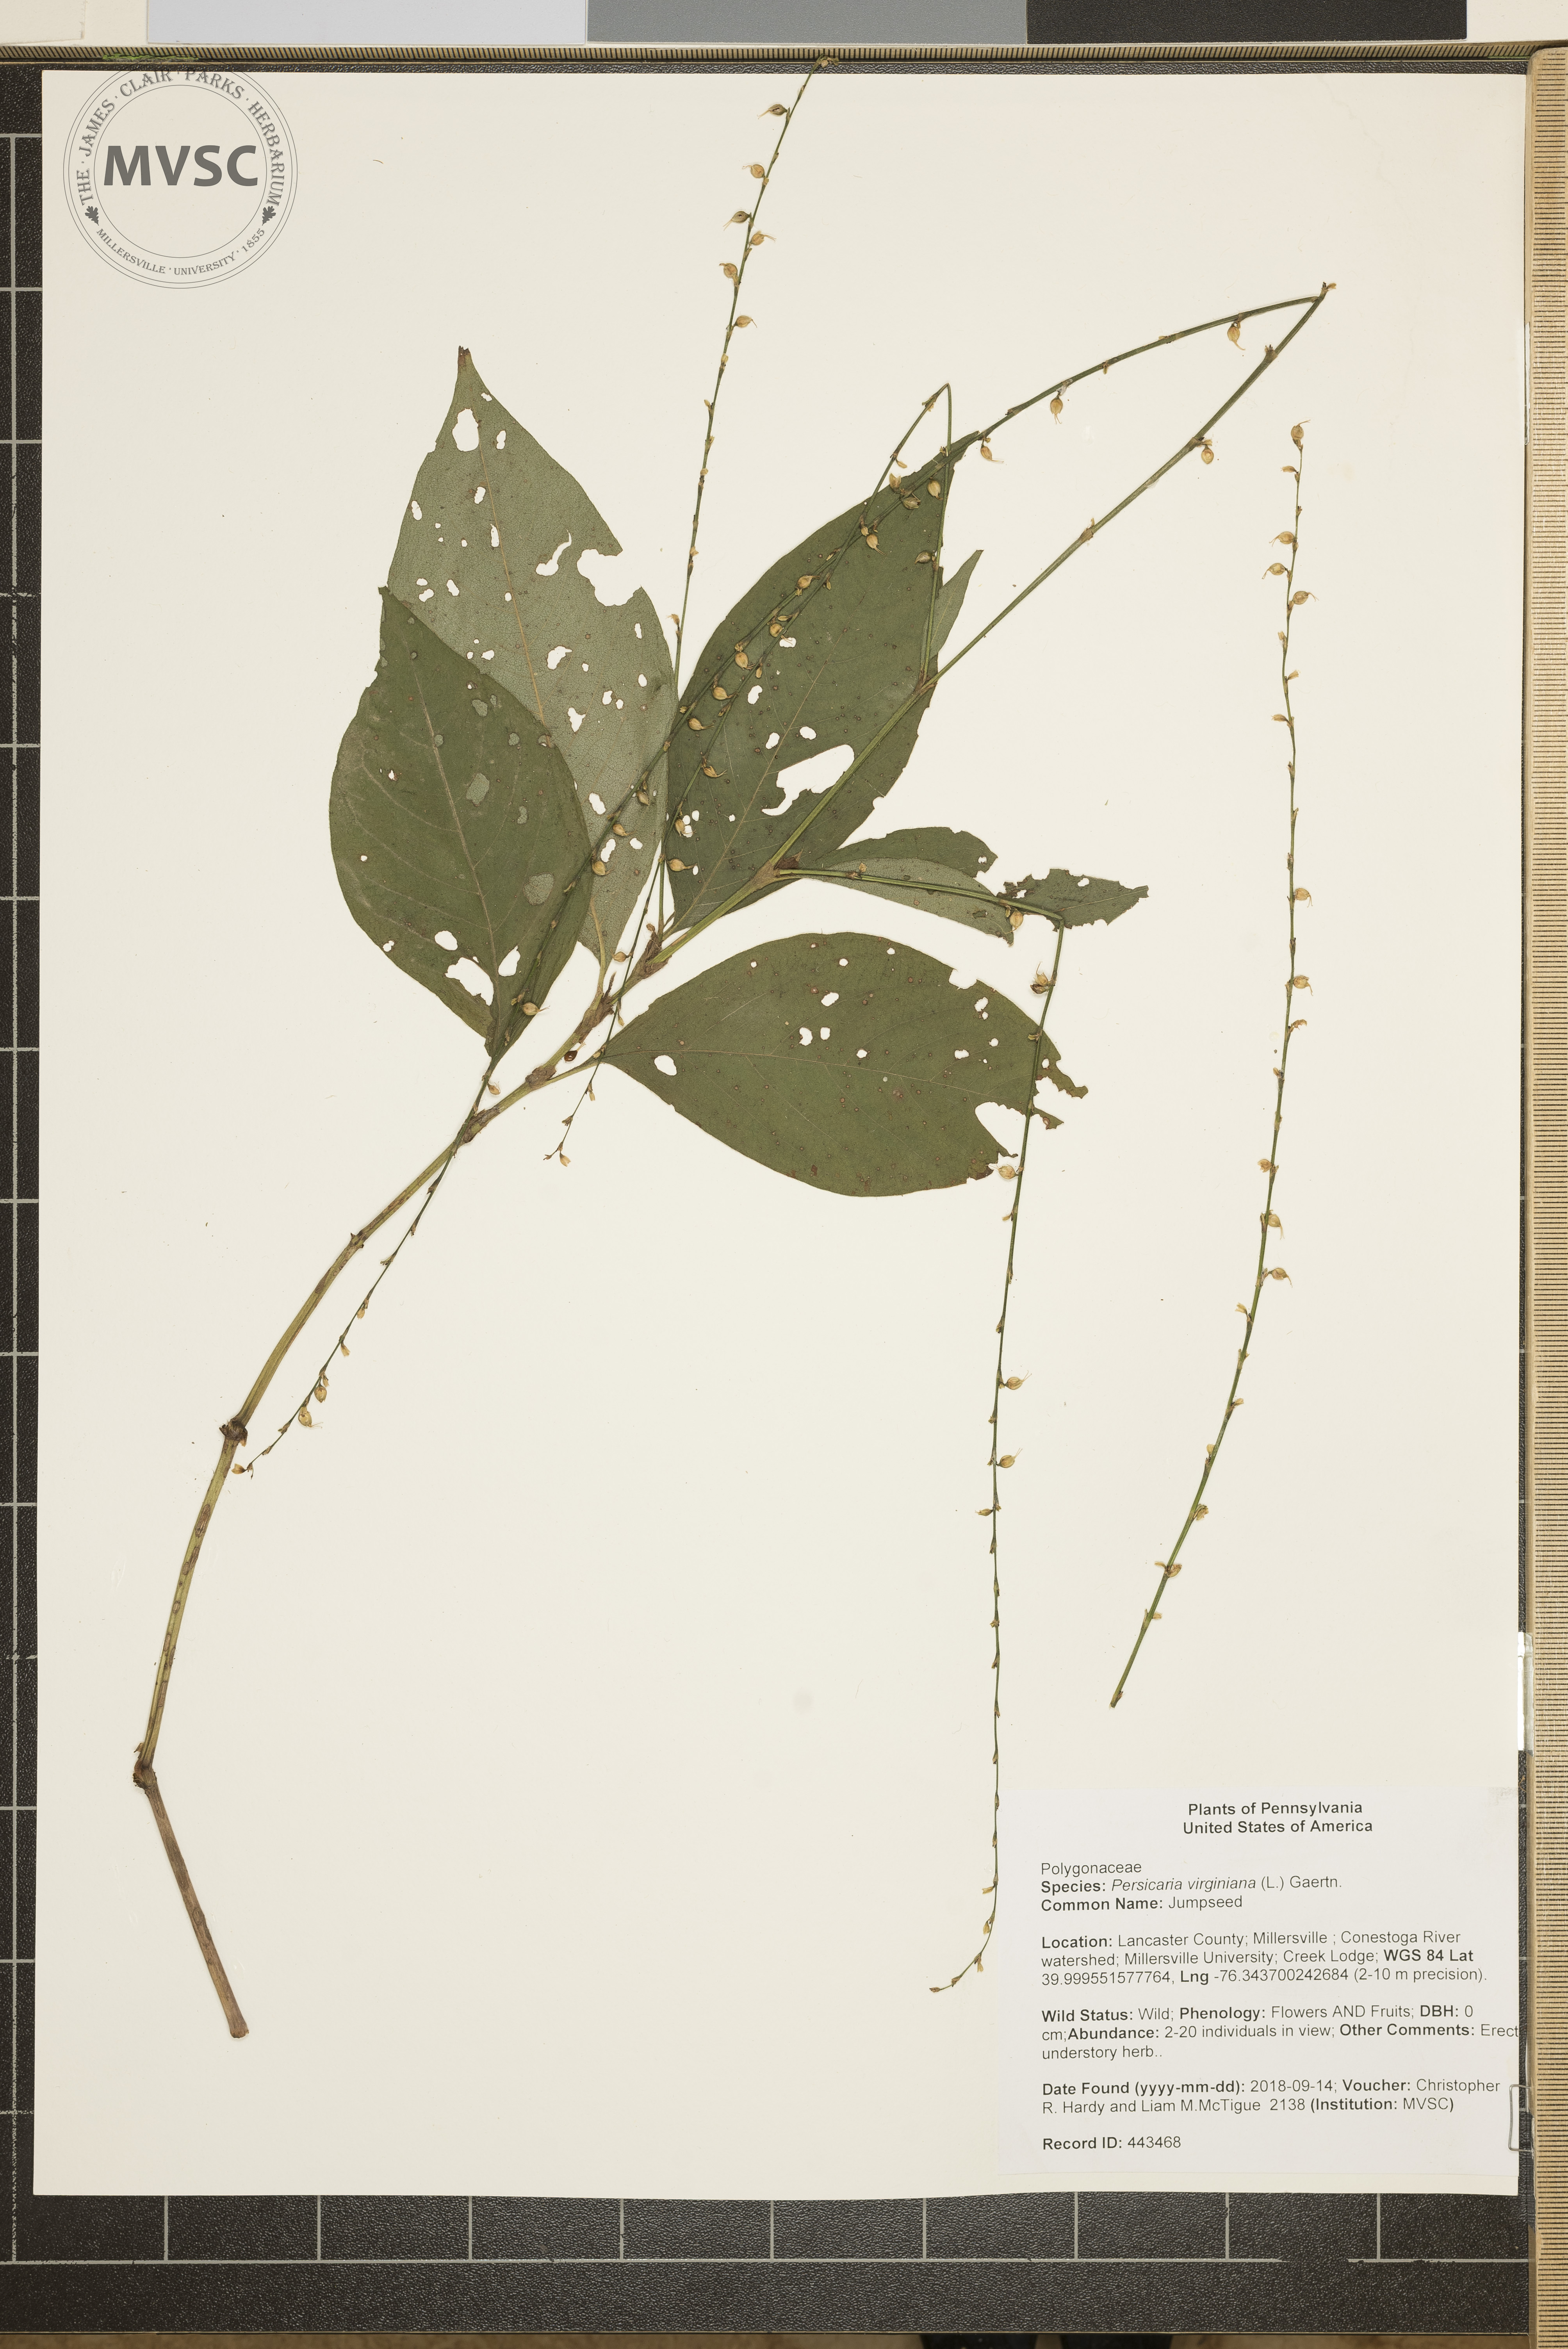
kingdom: Plantae
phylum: Tracheophyta
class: Magnoliopsida
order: Caryophyllales
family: Polygonaceae
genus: Persicaria
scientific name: Persicaria virginiana
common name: Jumpseed
